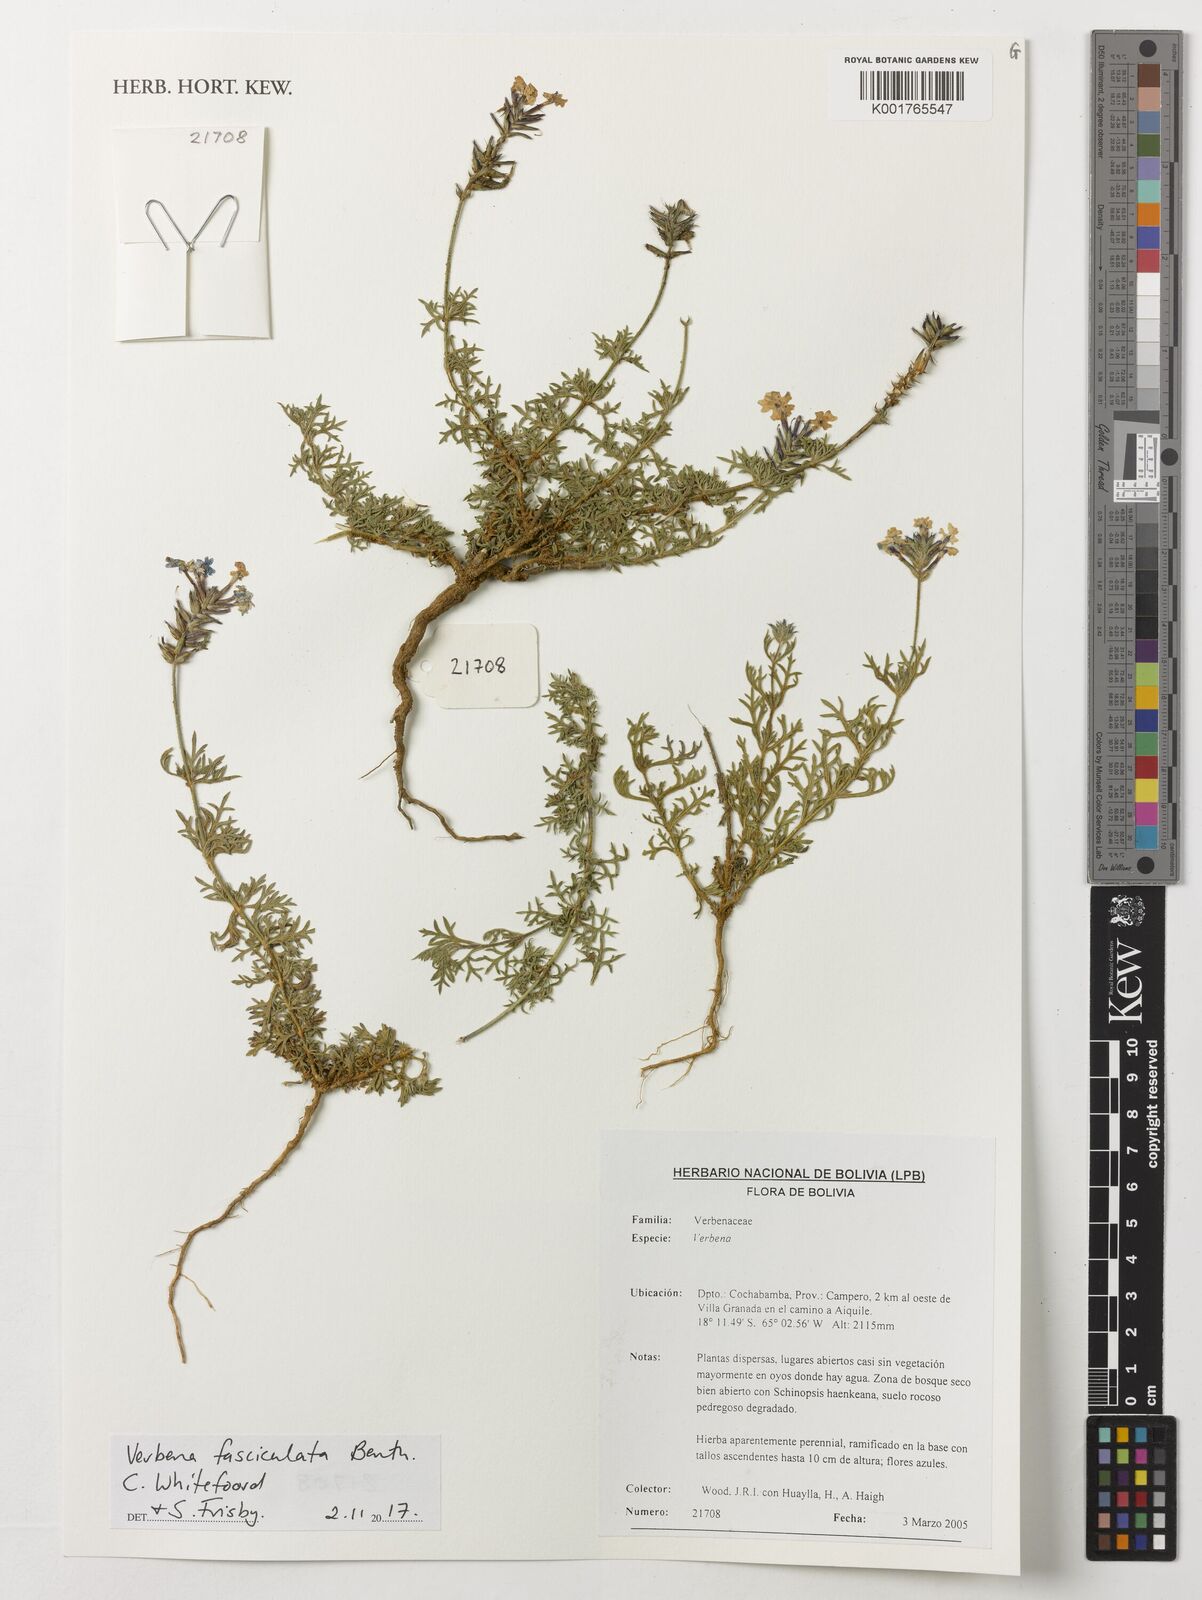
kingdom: Plantae
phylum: Tracheophyta
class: Magnoliopsida
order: Lamiales
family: Verbenaceae
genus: Junellia
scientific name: Junellia fasciculata
